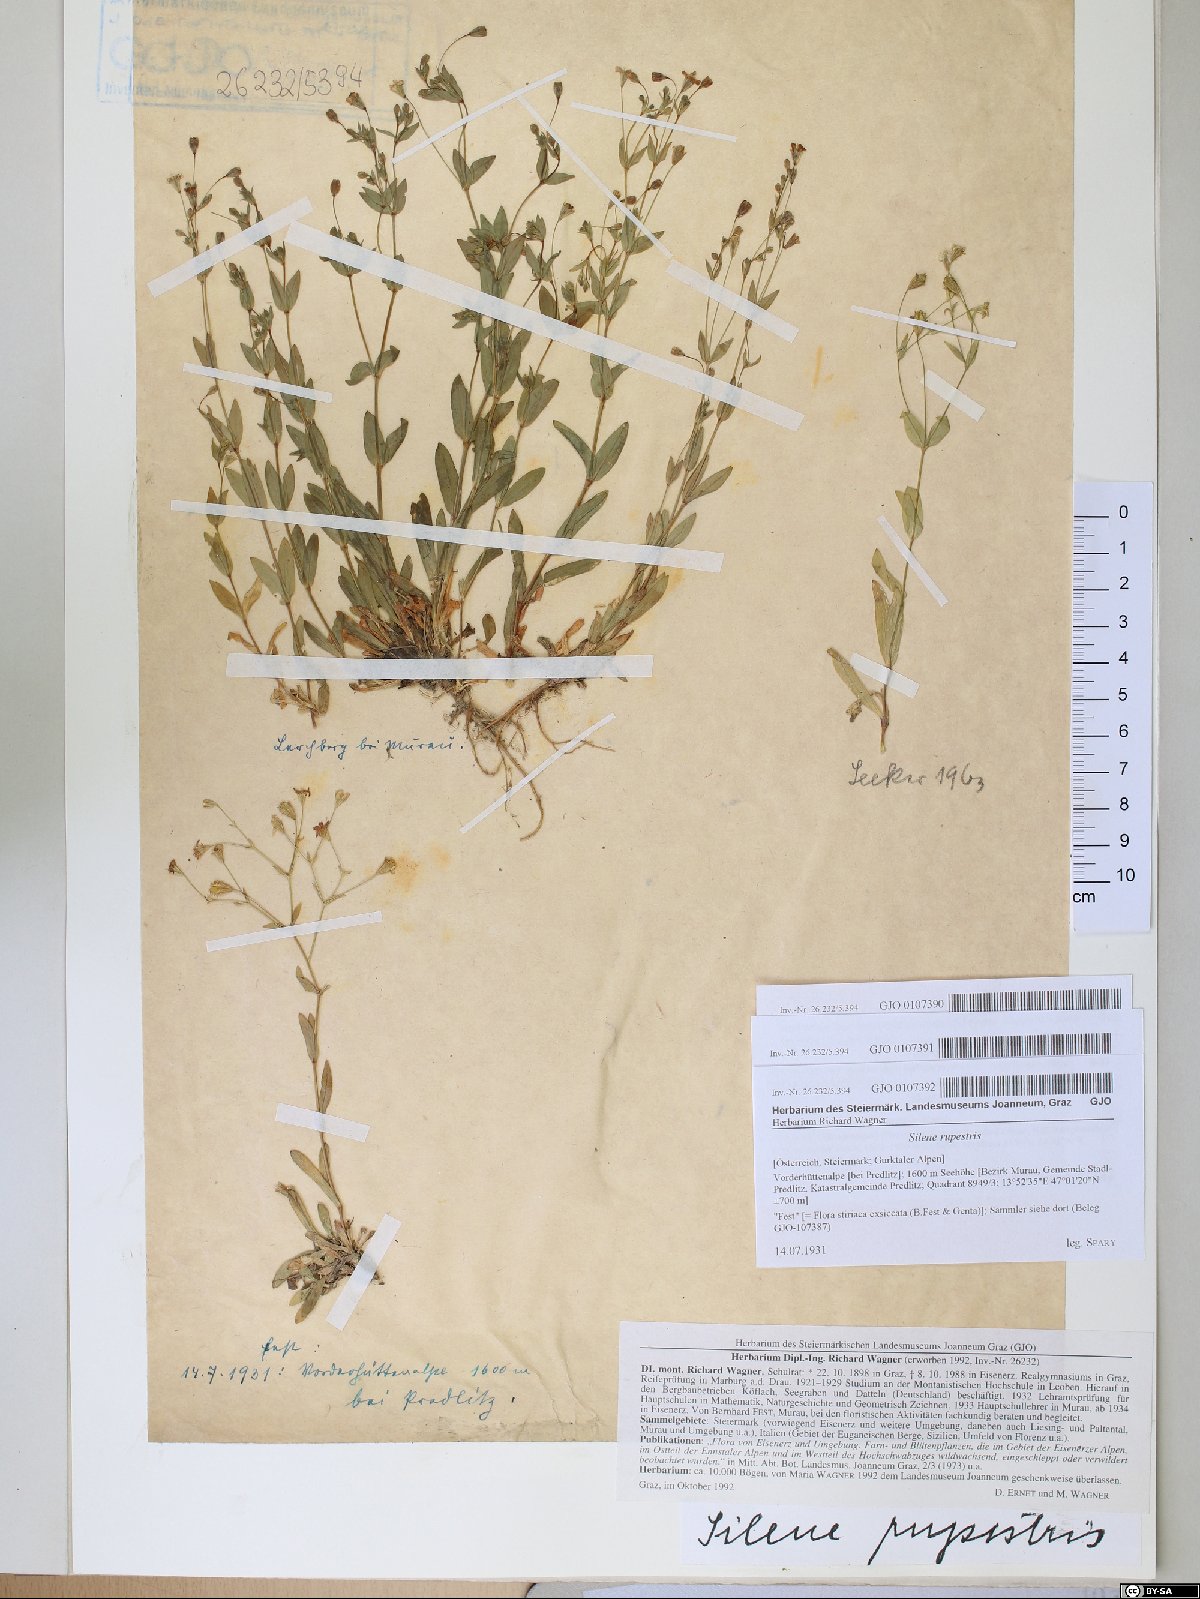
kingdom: Plantae
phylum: Tracheophyta
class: Magnoliopsida
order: Caryophyllales
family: Caryophyllaceae
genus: Atocion
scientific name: Atocion rupestre
